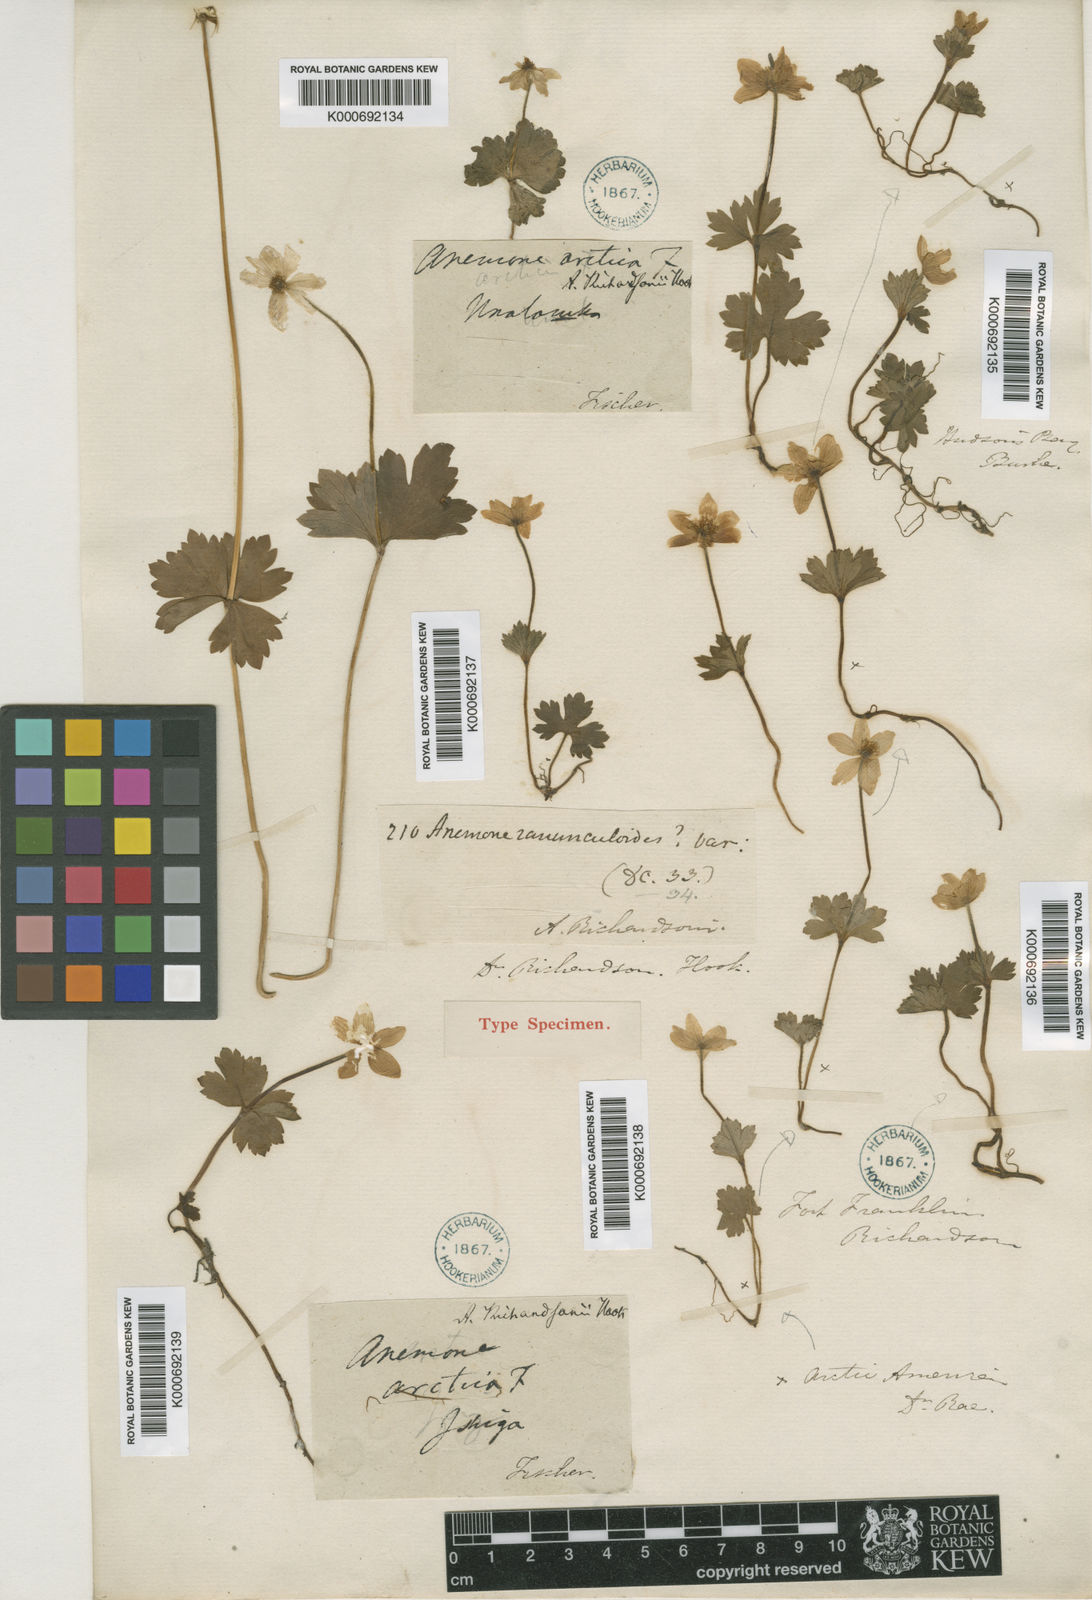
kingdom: Plantae
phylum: Tracheophyta
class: Magnoliopsida
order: Ranunculales
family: Ranunculaceae
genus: Anemonastrum
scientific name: Anemonastrum richardsonii
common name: Richardson's anemone
